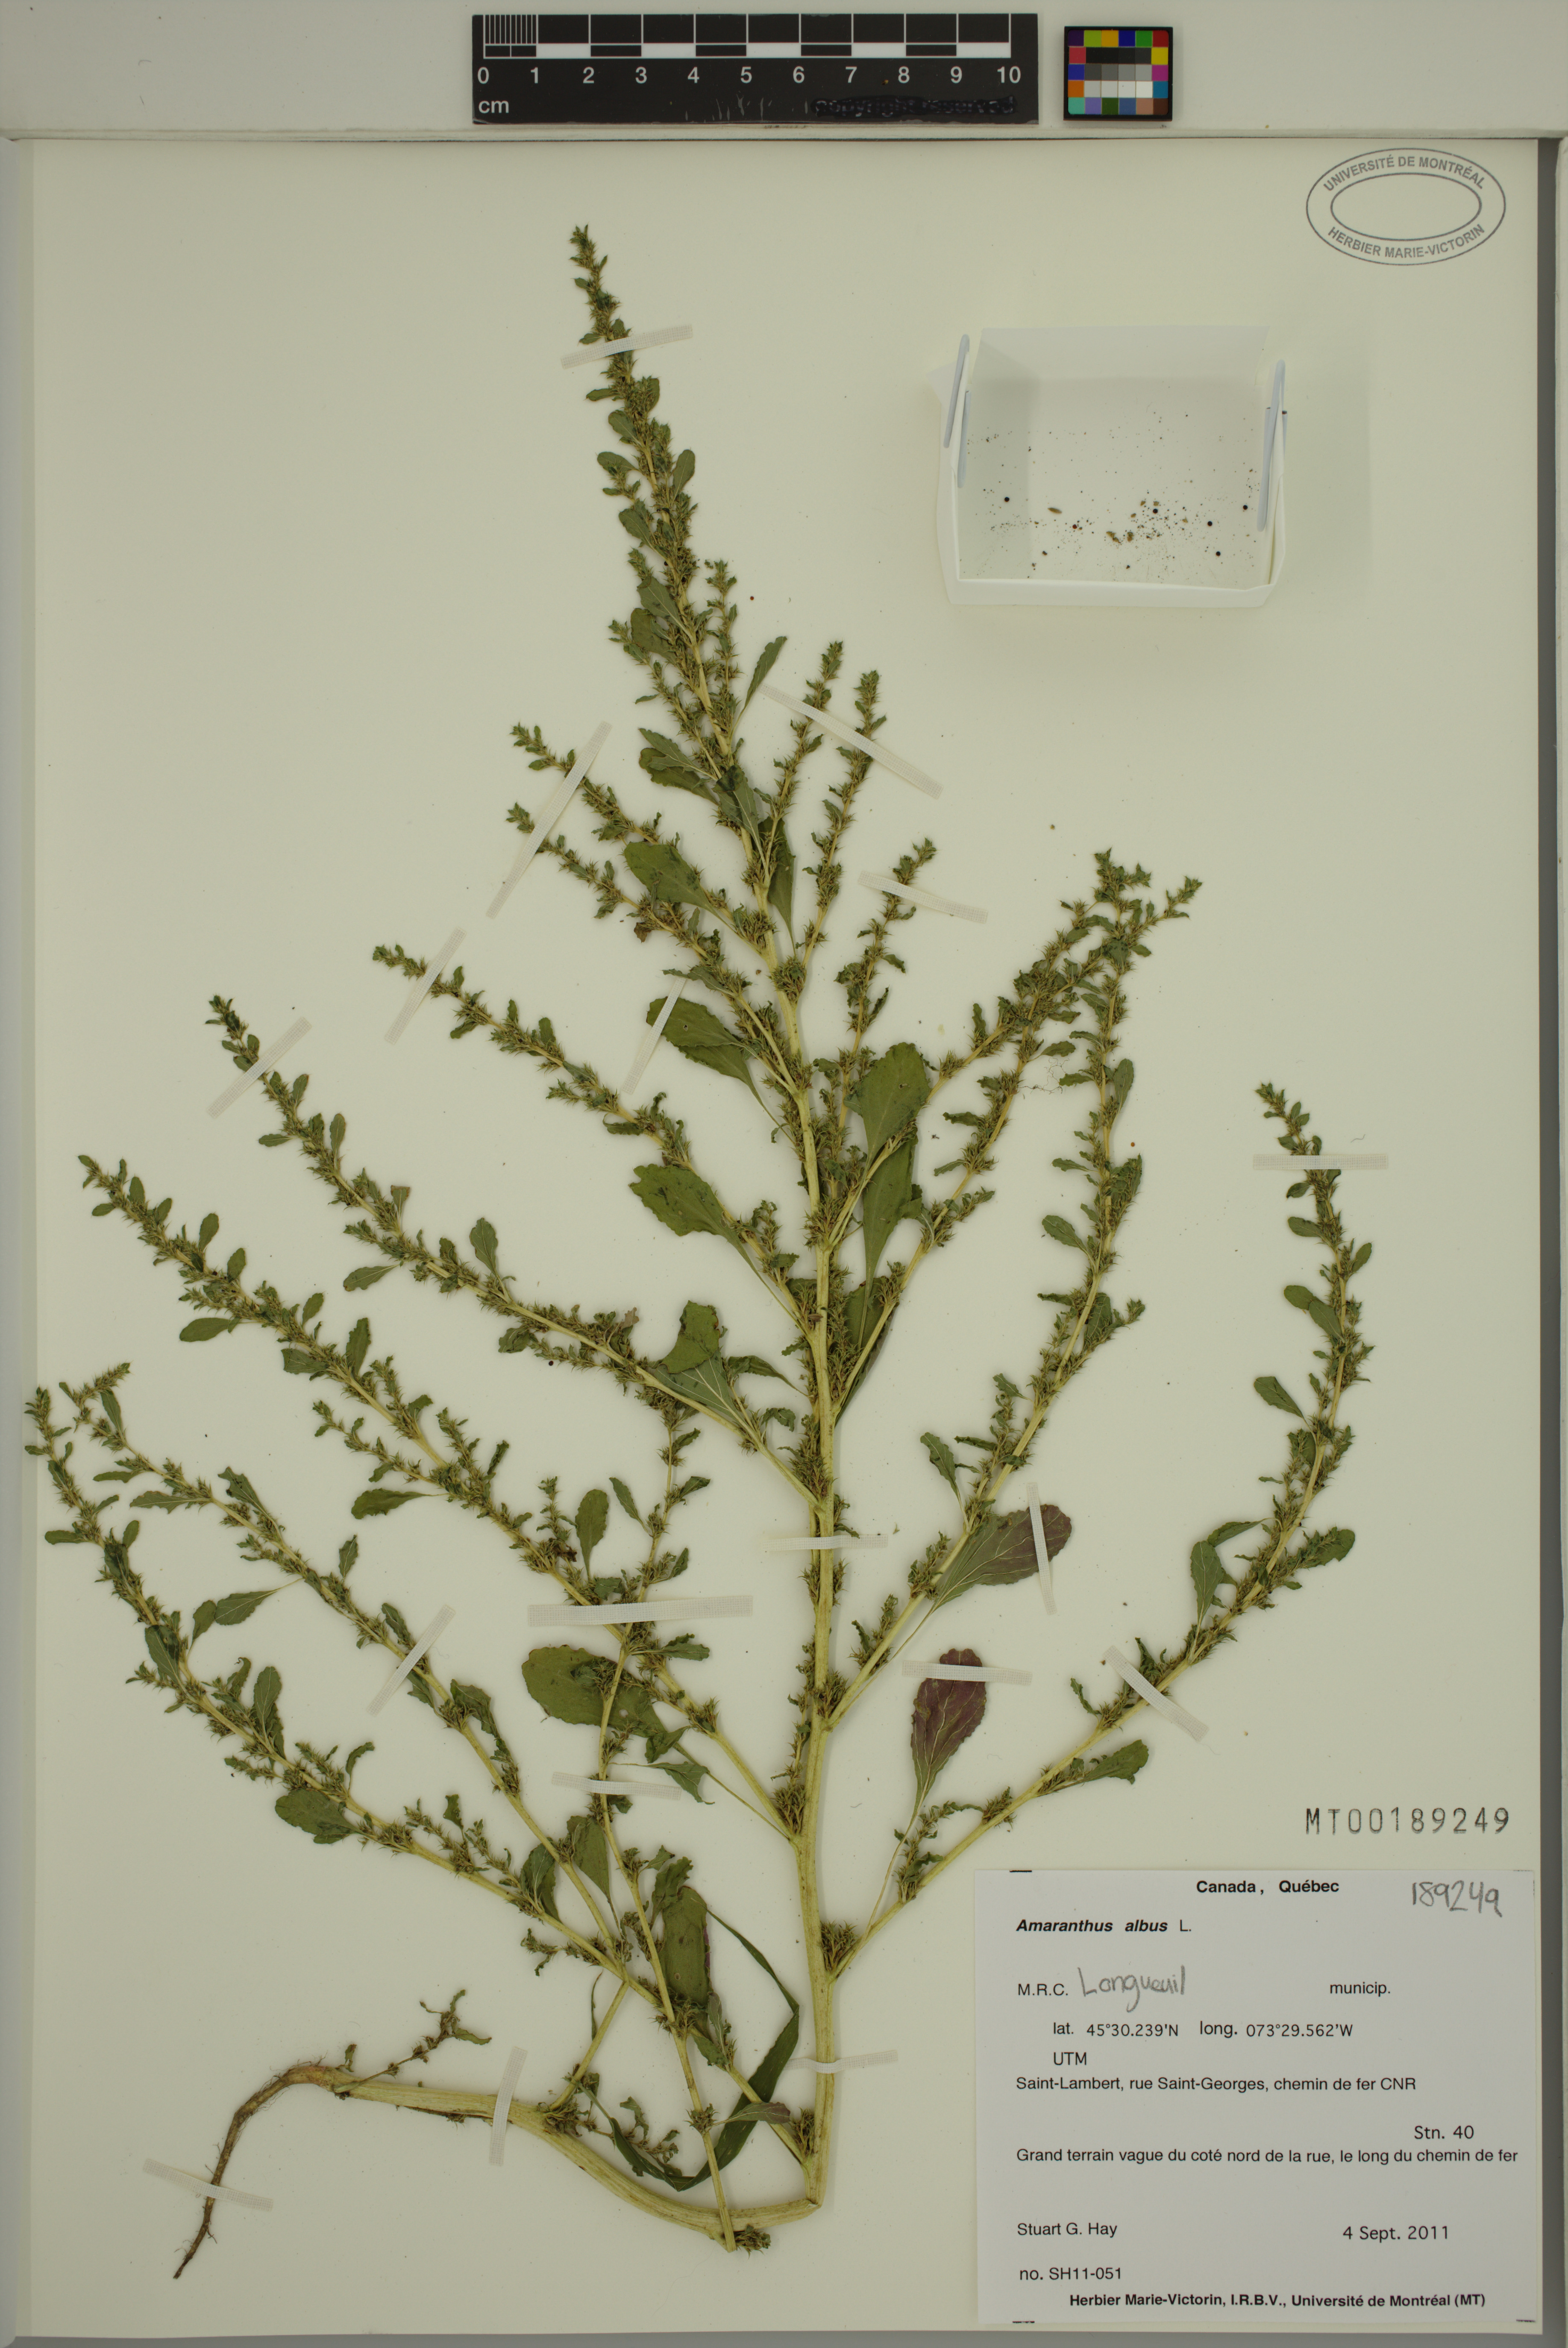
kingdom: Plantae
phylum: Tracheophyta
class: Magnoliopsida
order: Caryophyllales
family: Amaranthaceae
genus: Amaranthus
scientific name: Amaranthus albus
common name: White pigweed
